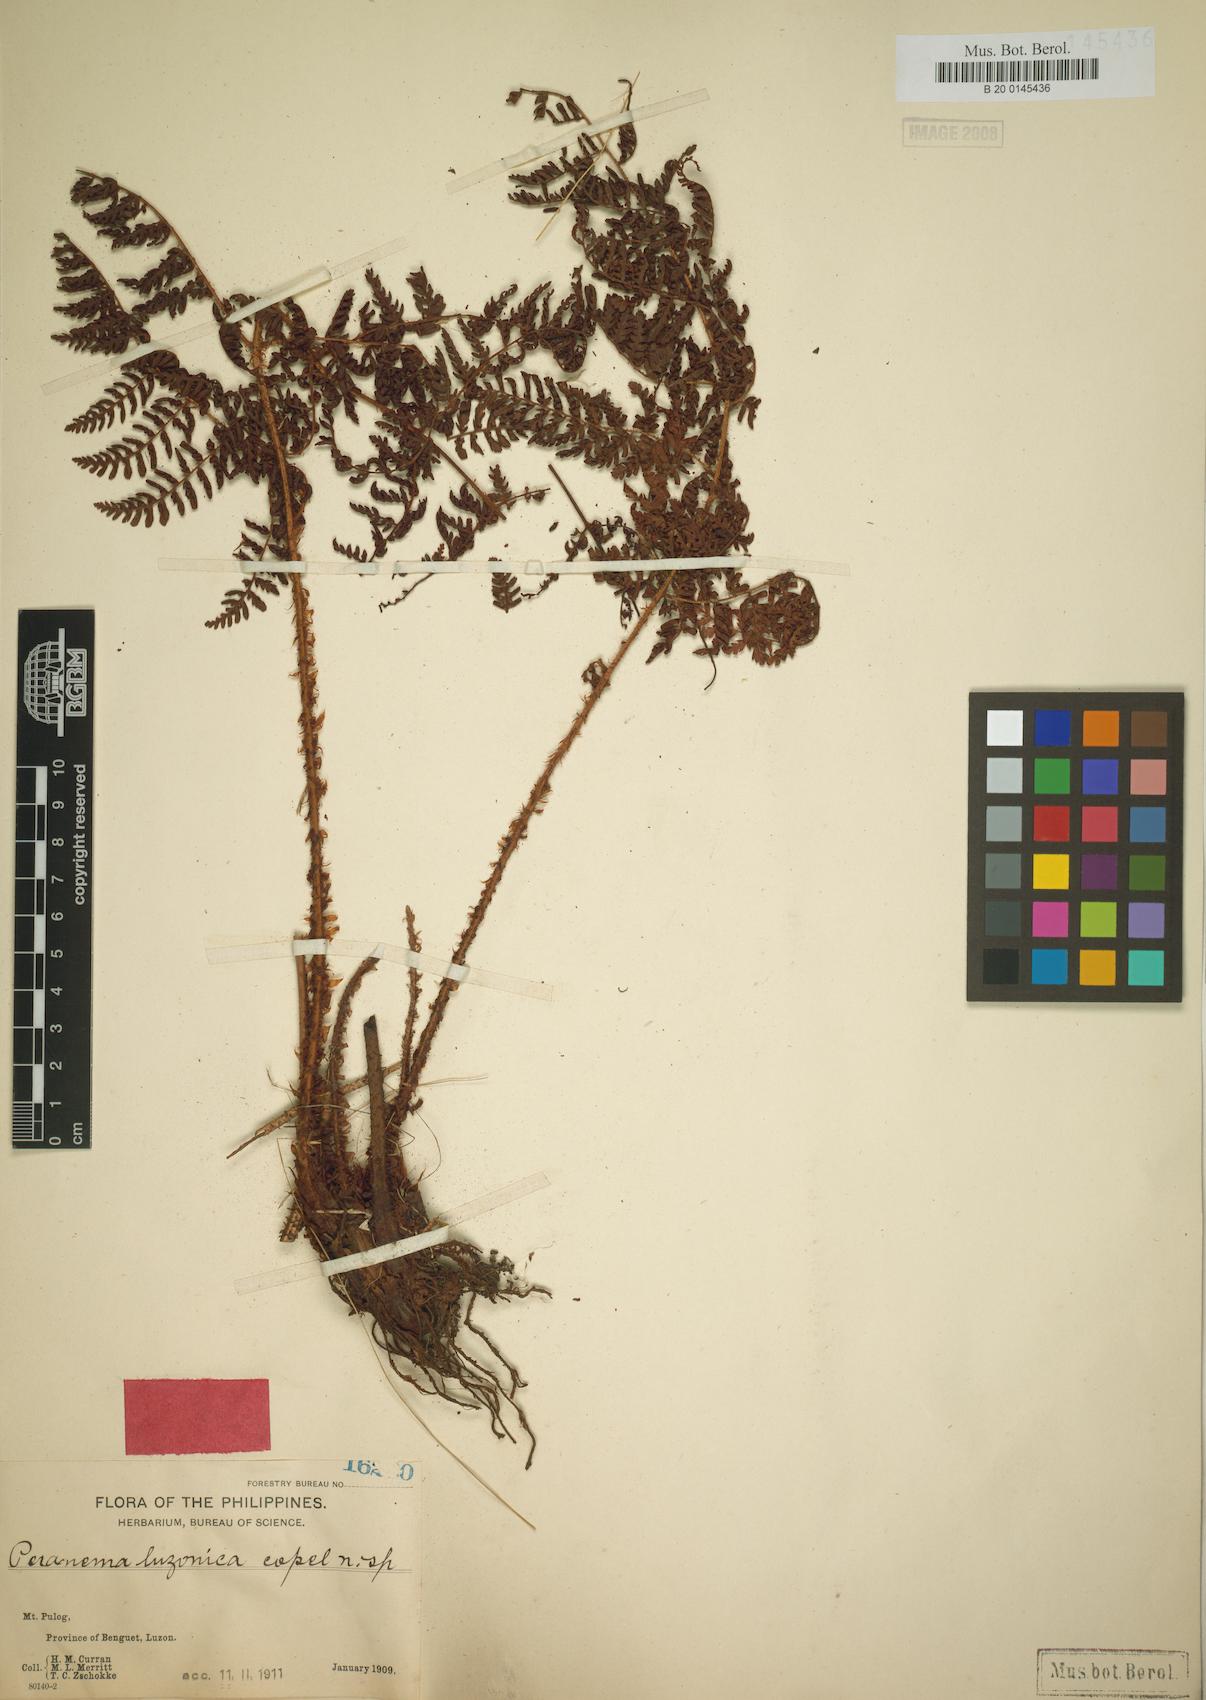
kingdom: Plantae
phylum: Tracheophyta
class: Polypodiopsida
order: Polypodiales
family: Dryopteridaceae
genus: Dryopteris
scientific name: Dryopteris peranema
